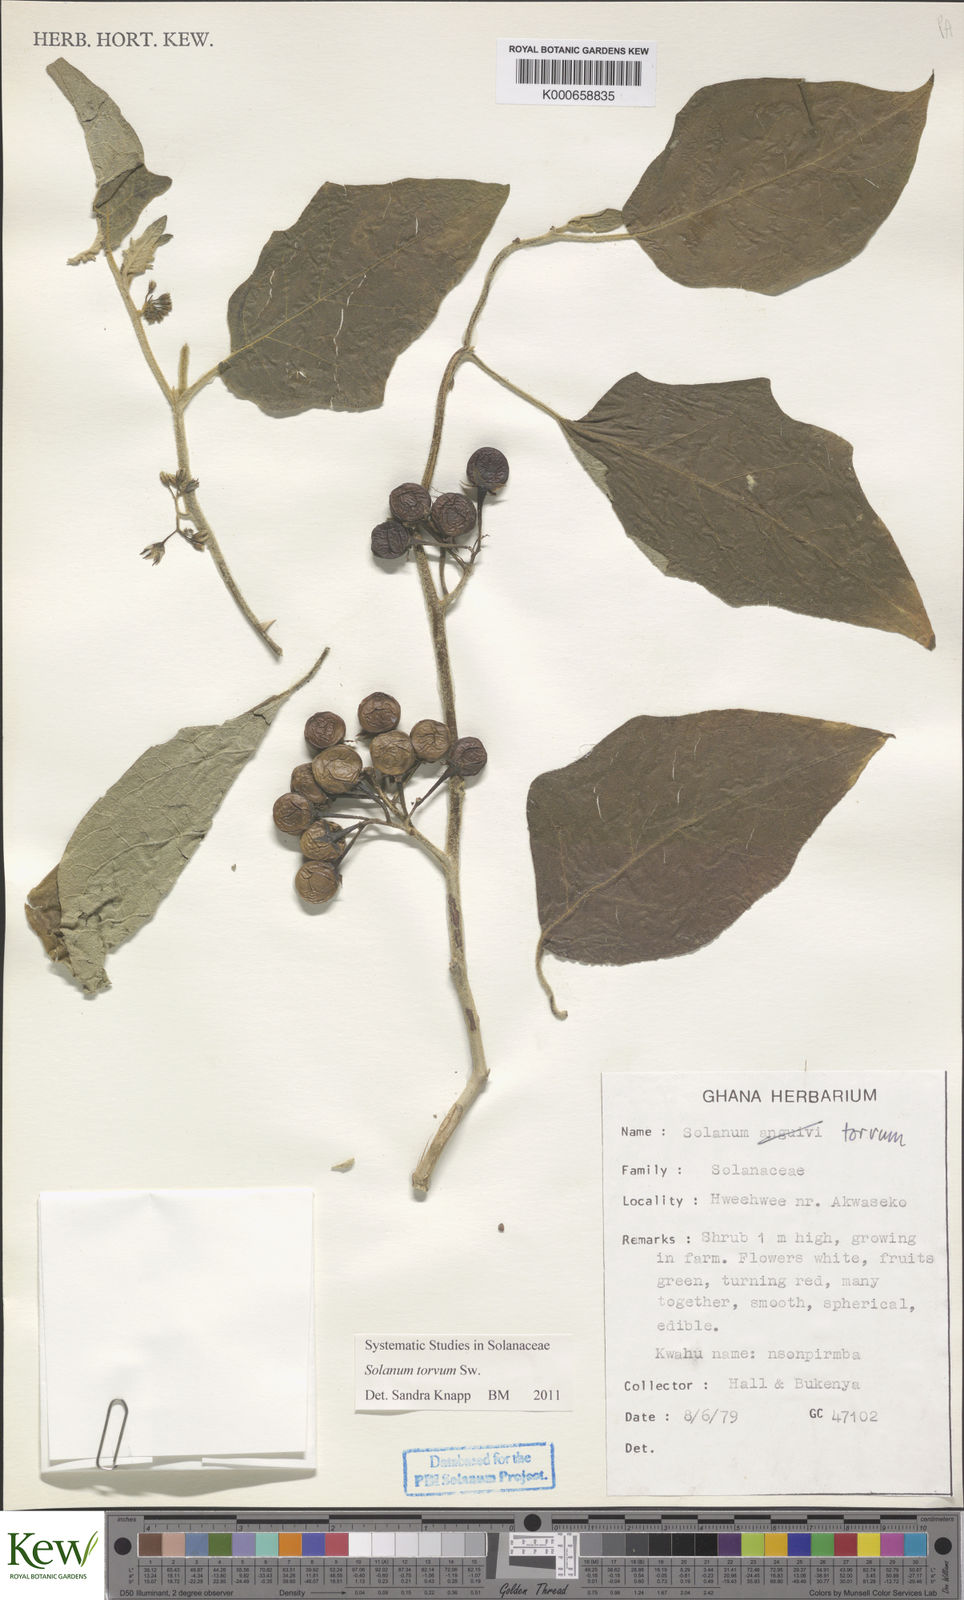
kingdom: Plantae
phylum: Tracheophyta
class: Magnoliopsida
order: Solanales
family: Solanaceae
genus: Solanum
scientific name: Solanum torvum
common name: Turkey berry
